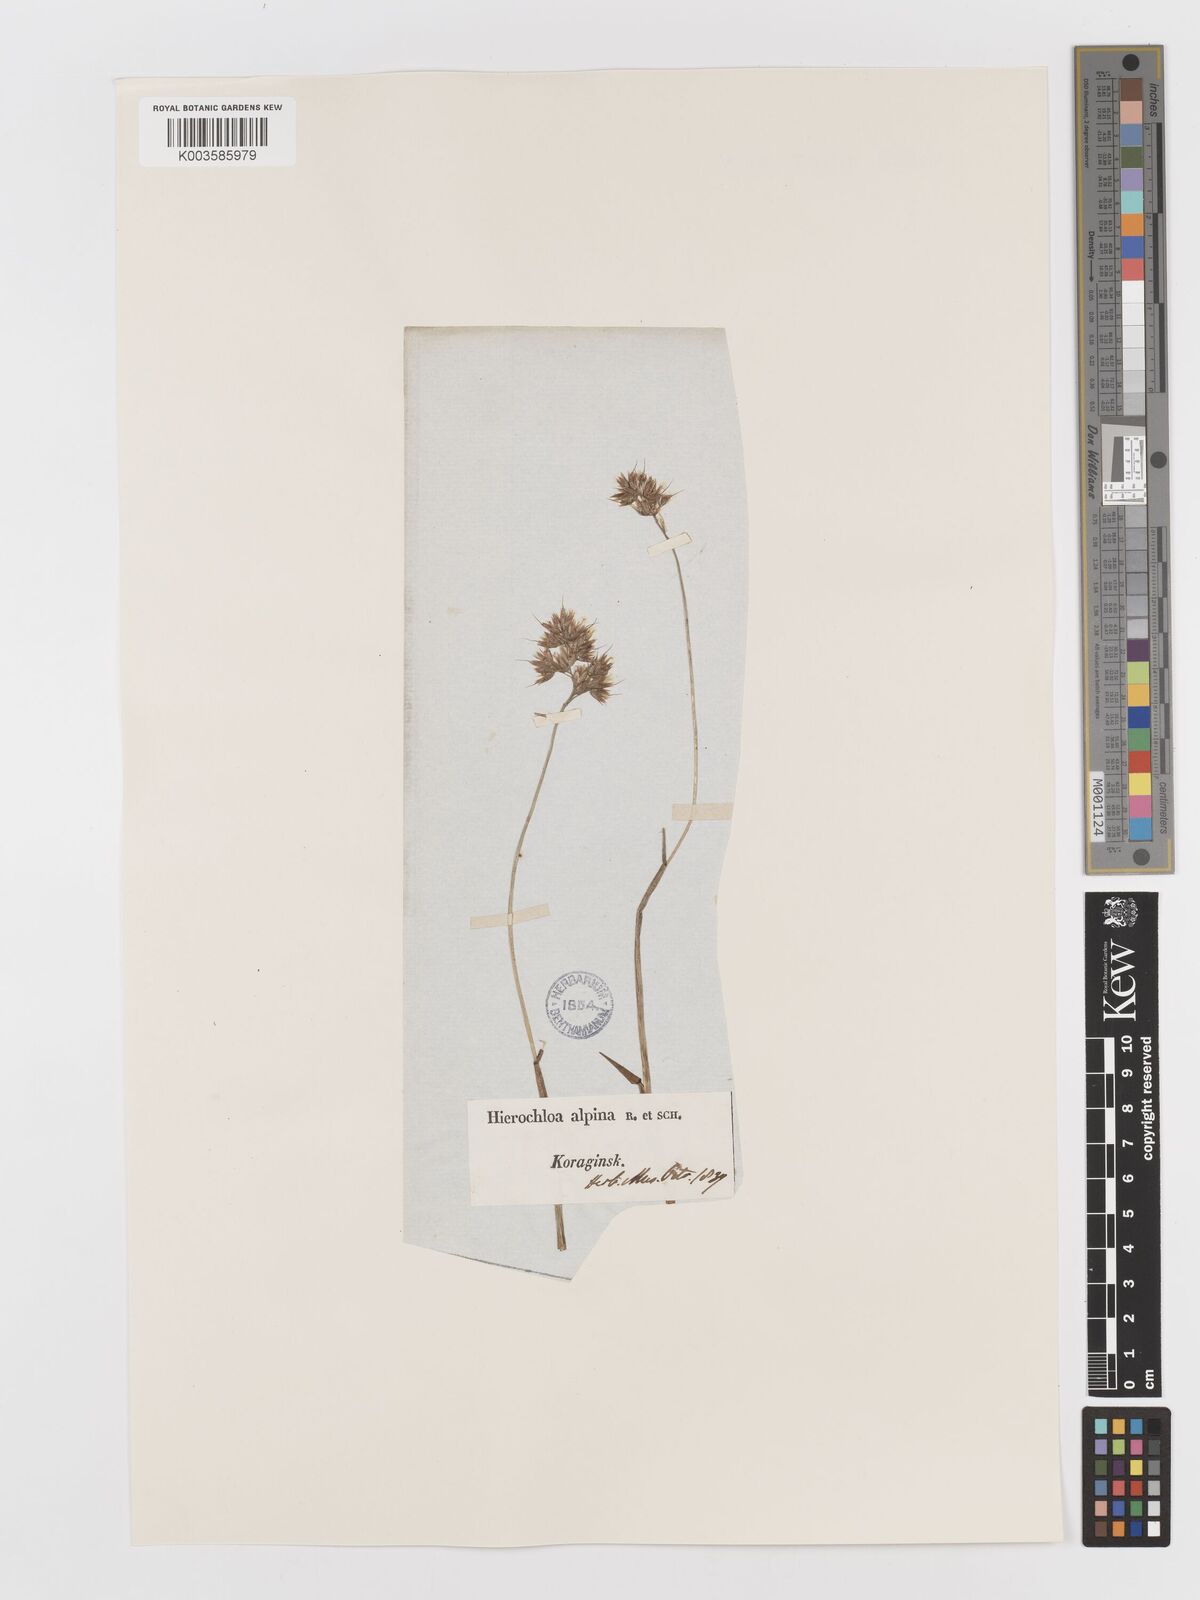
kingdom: Plantae
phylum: Tracheophyta
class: Liliopsida
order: Poales
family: Poaceae
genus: Anthoxanthum
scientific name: Anthoxanthum monticola
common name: Alpine sweetgrass
